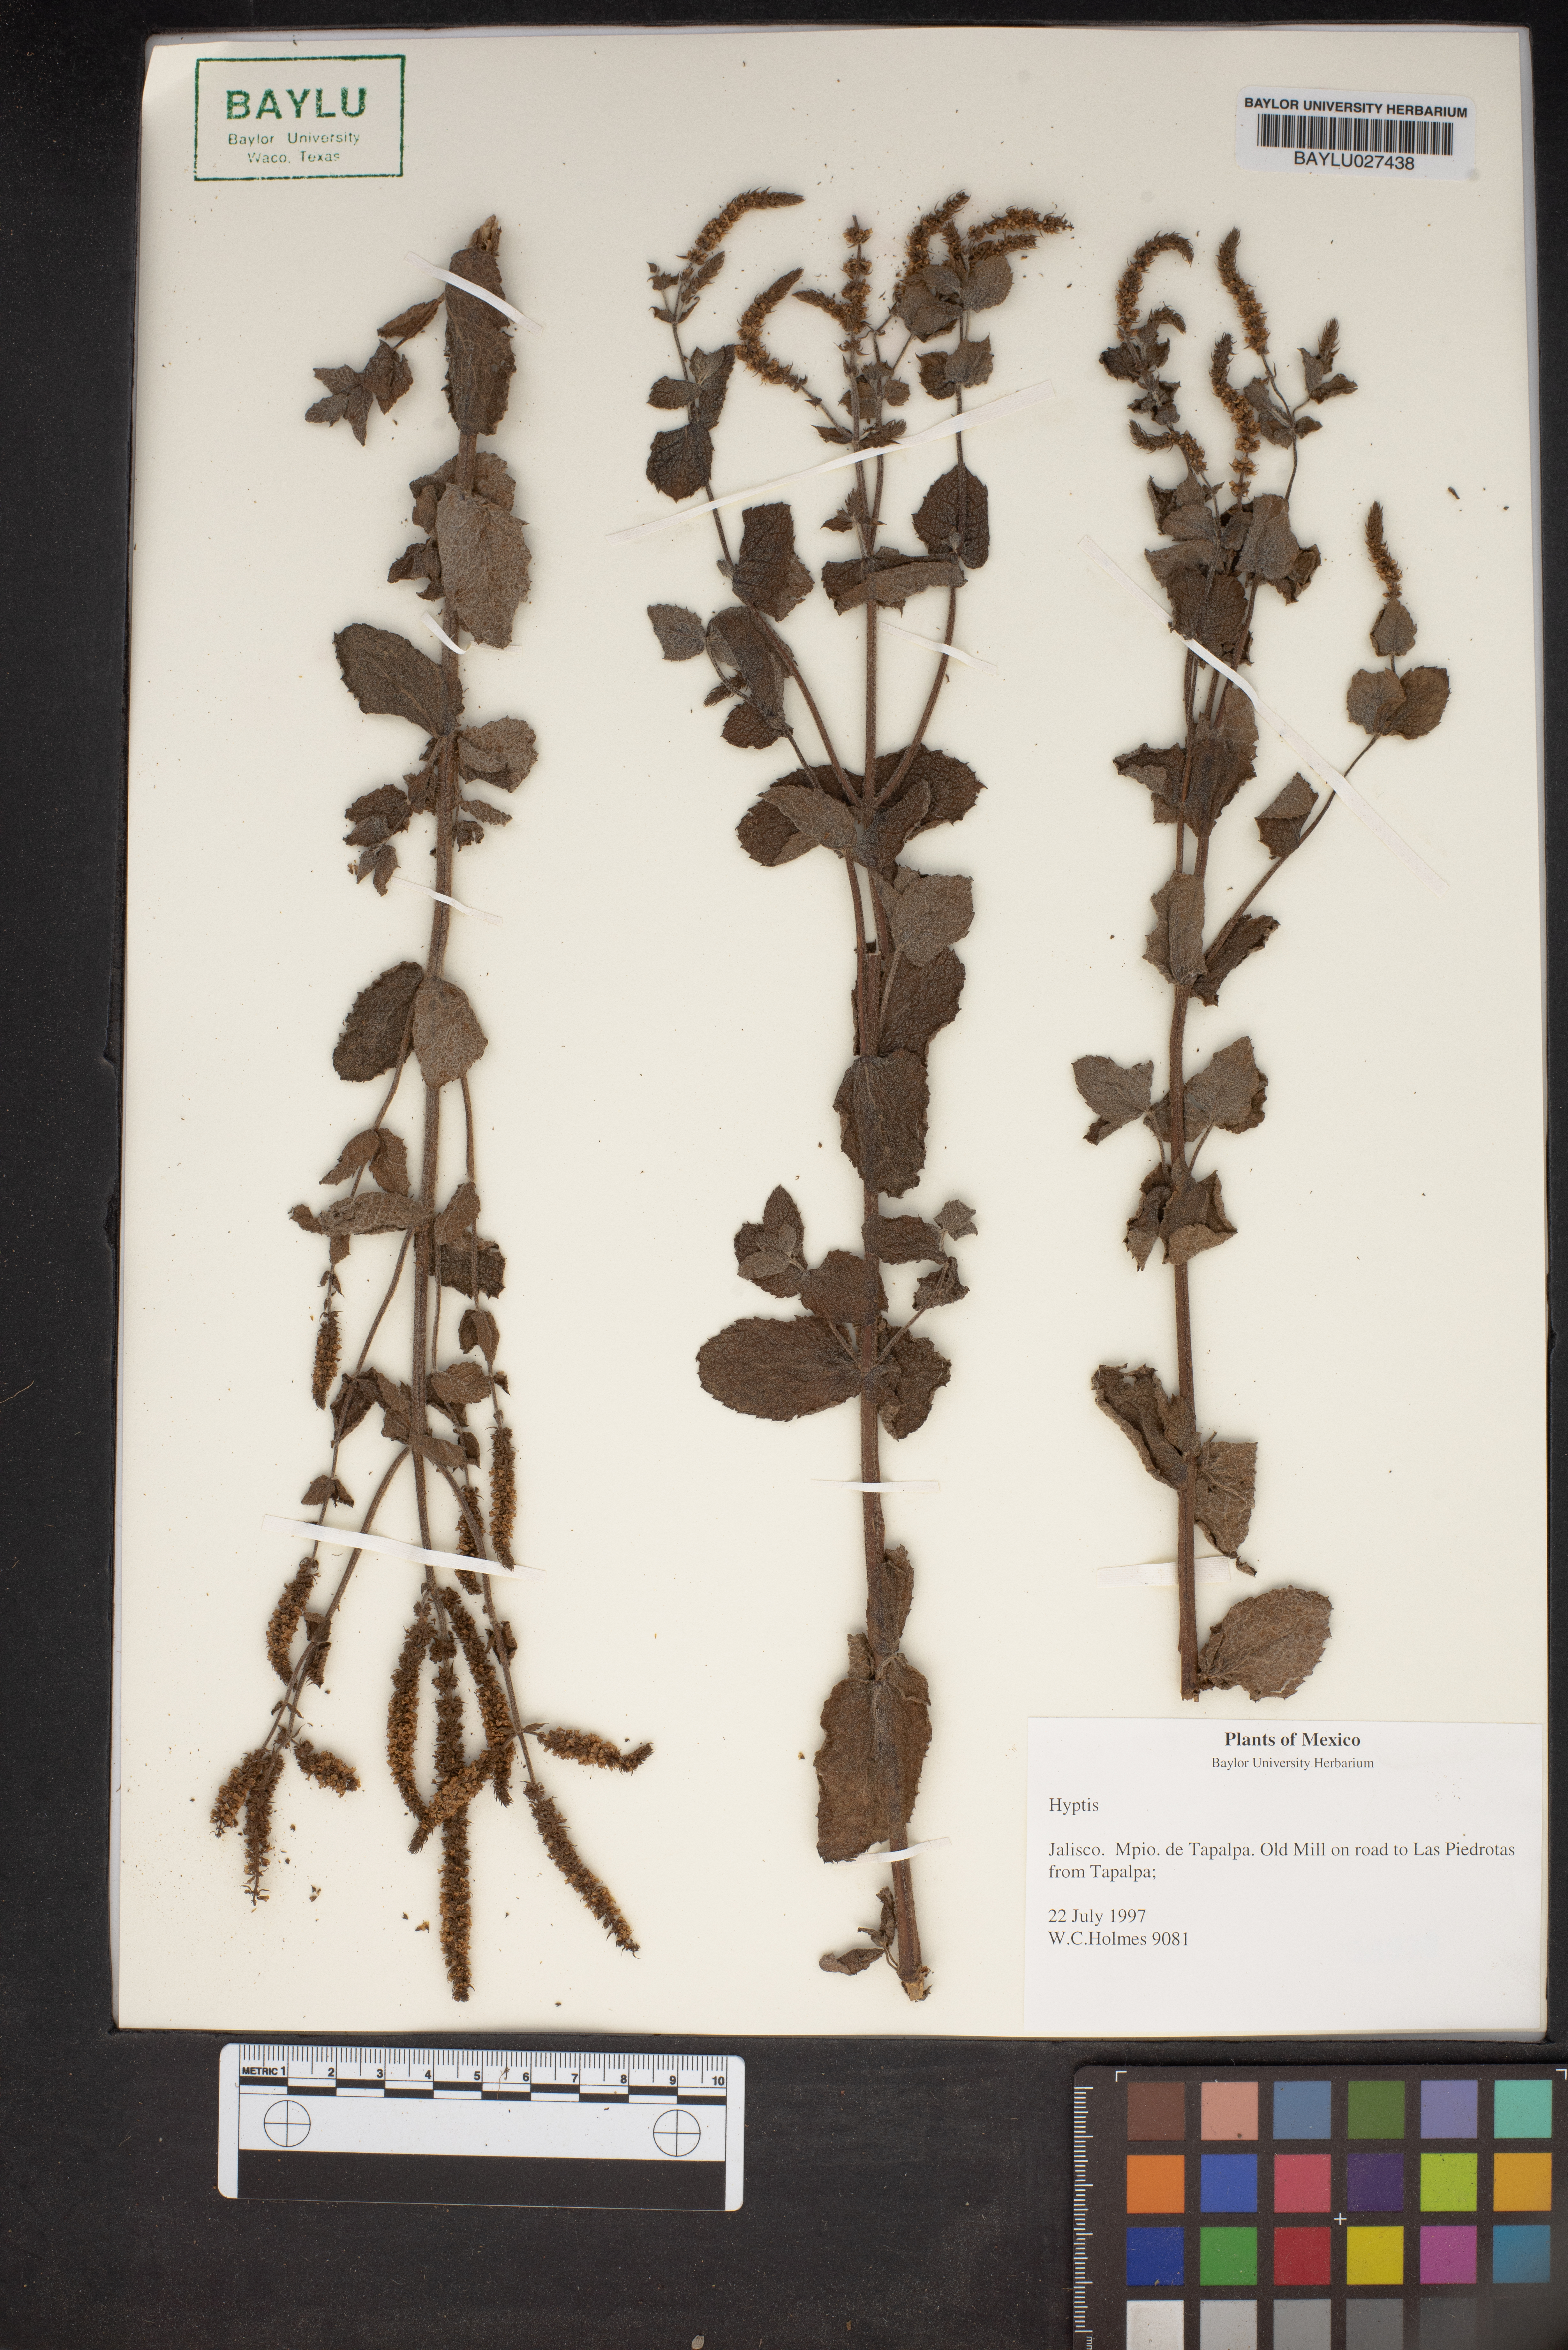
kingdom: Plantae
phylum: Tracheophyta
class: Magnoliopsida
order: Lamiales
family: Lamiaceae
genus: Hyptis
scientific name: Hyptis
